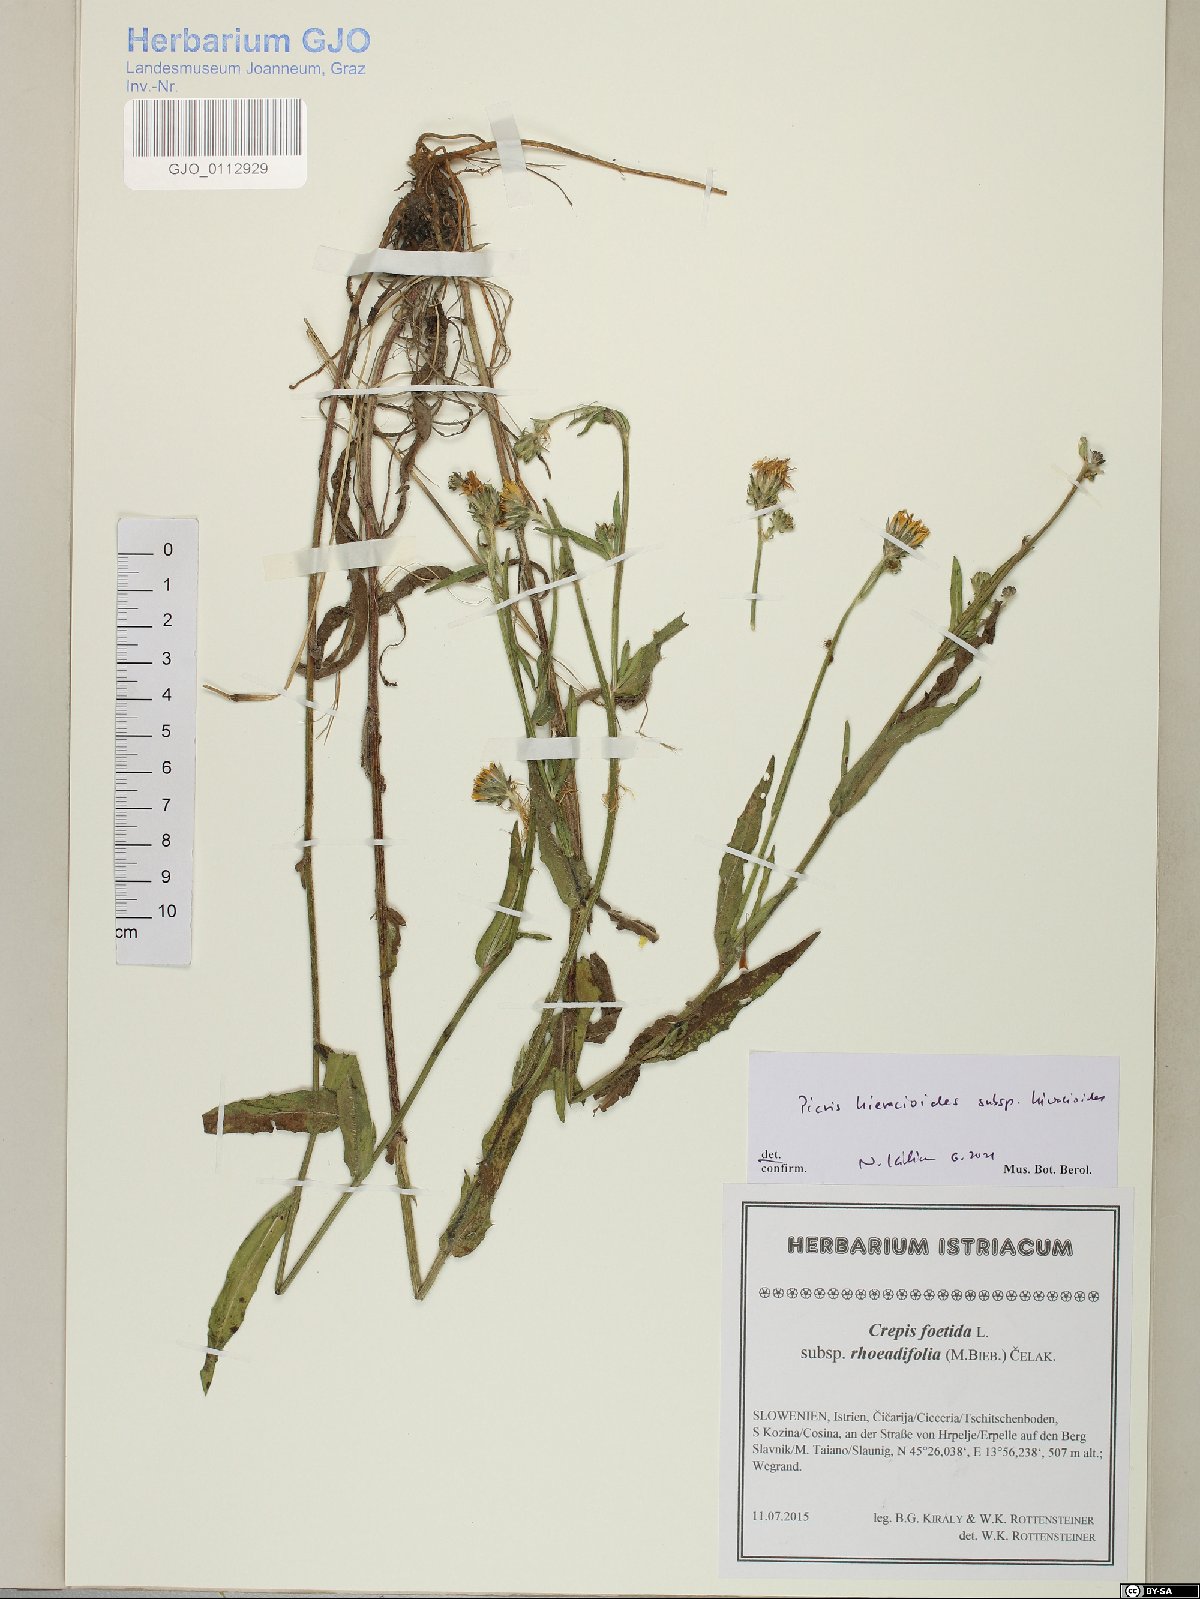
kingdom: Plantae
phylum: Tracheophyta
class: Magnoliopsida
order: Asterales
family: Asteraceae
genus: Picris
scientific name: Picris hieracioides
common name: Hawkweed oxtongue
